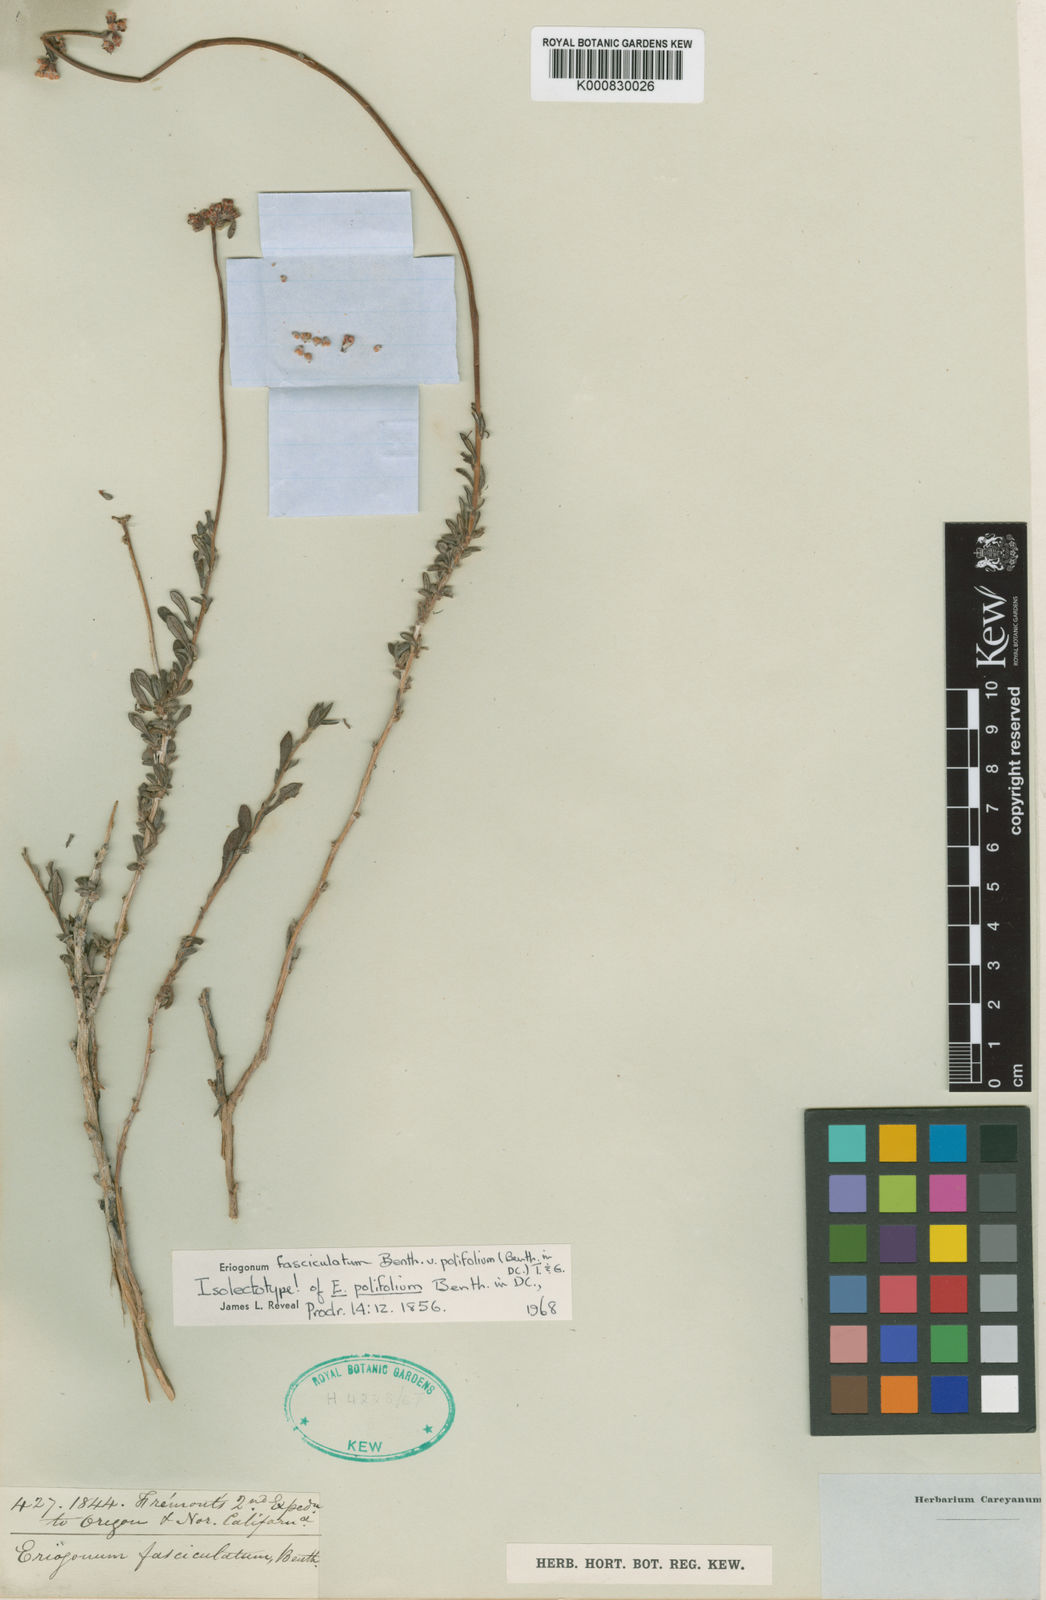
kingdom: Plantae
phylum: Tracheophyta
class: Magnoliopsida
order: Caryophyllales
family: Polygonaceae
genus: Eriogonum
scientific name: Eriogonum fasciculatum
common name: California wild buckwheat
